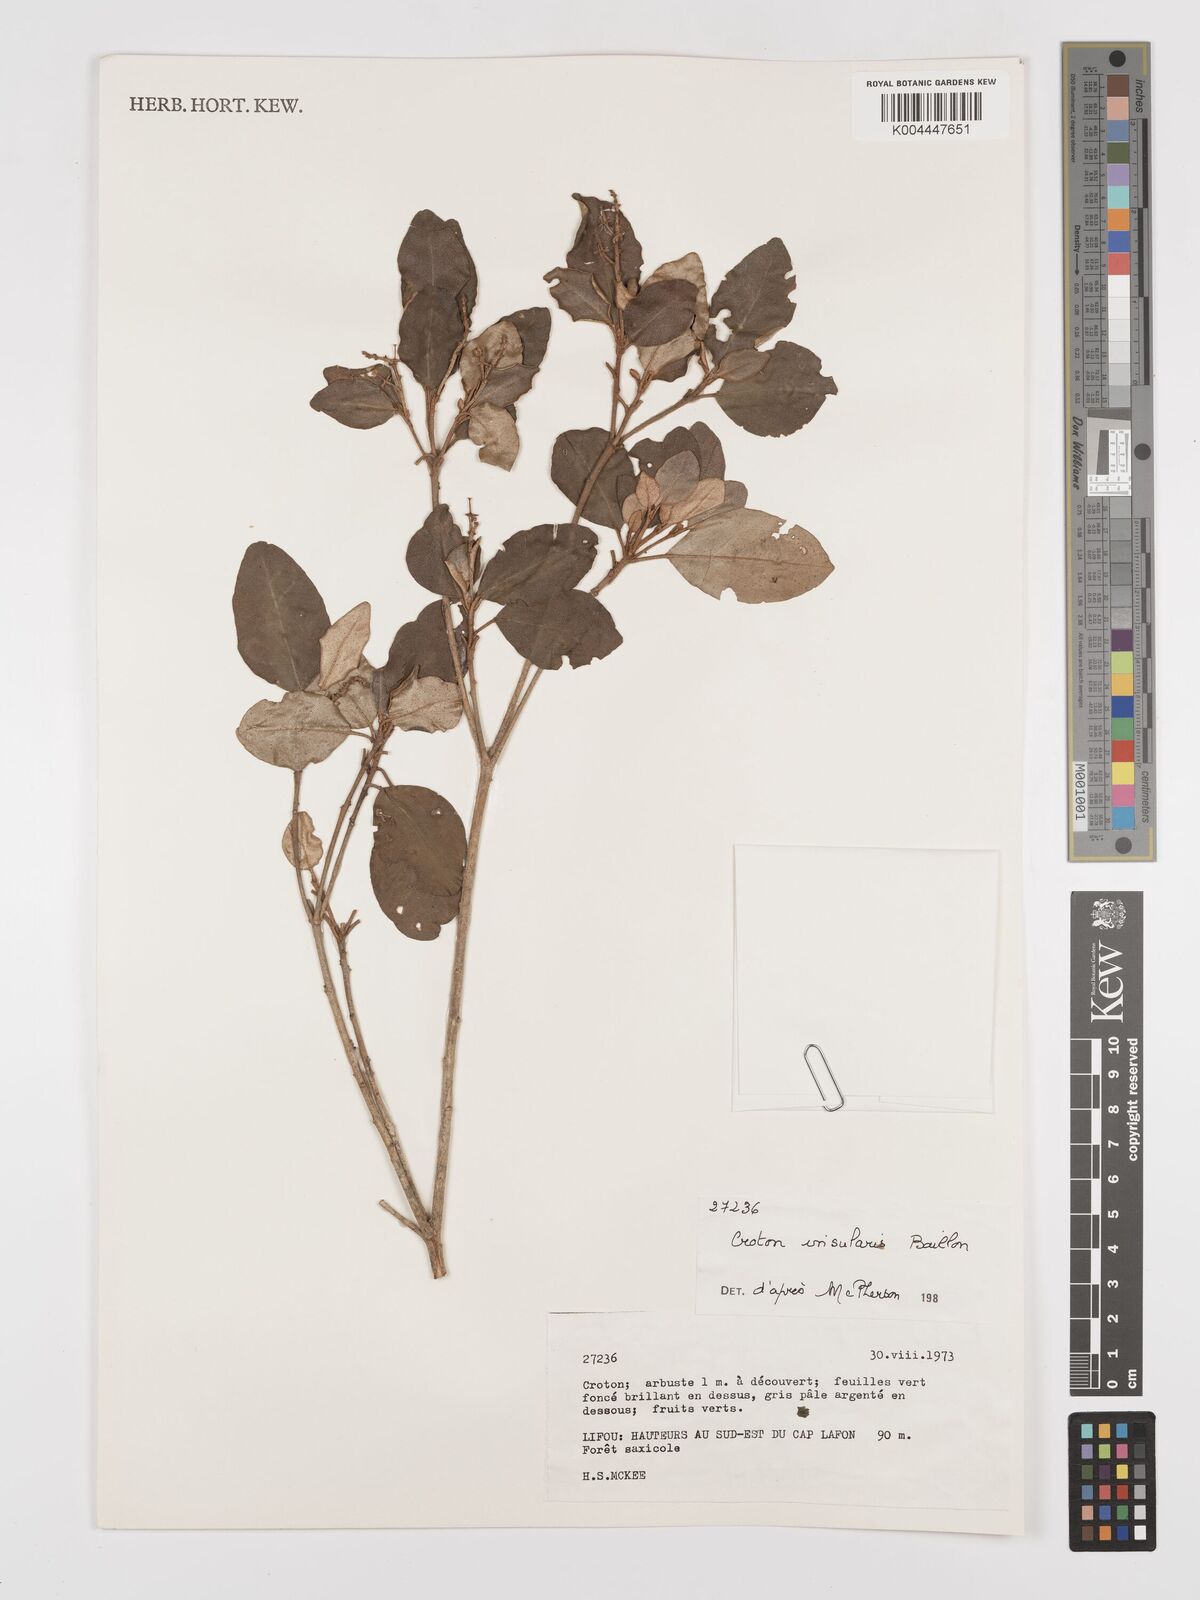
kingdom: Plantae
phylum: Tracheophyta
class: Magnoliopsida
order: Malpighiales
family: Euphorbiaceae
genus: Croton
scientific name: Croton insularis
